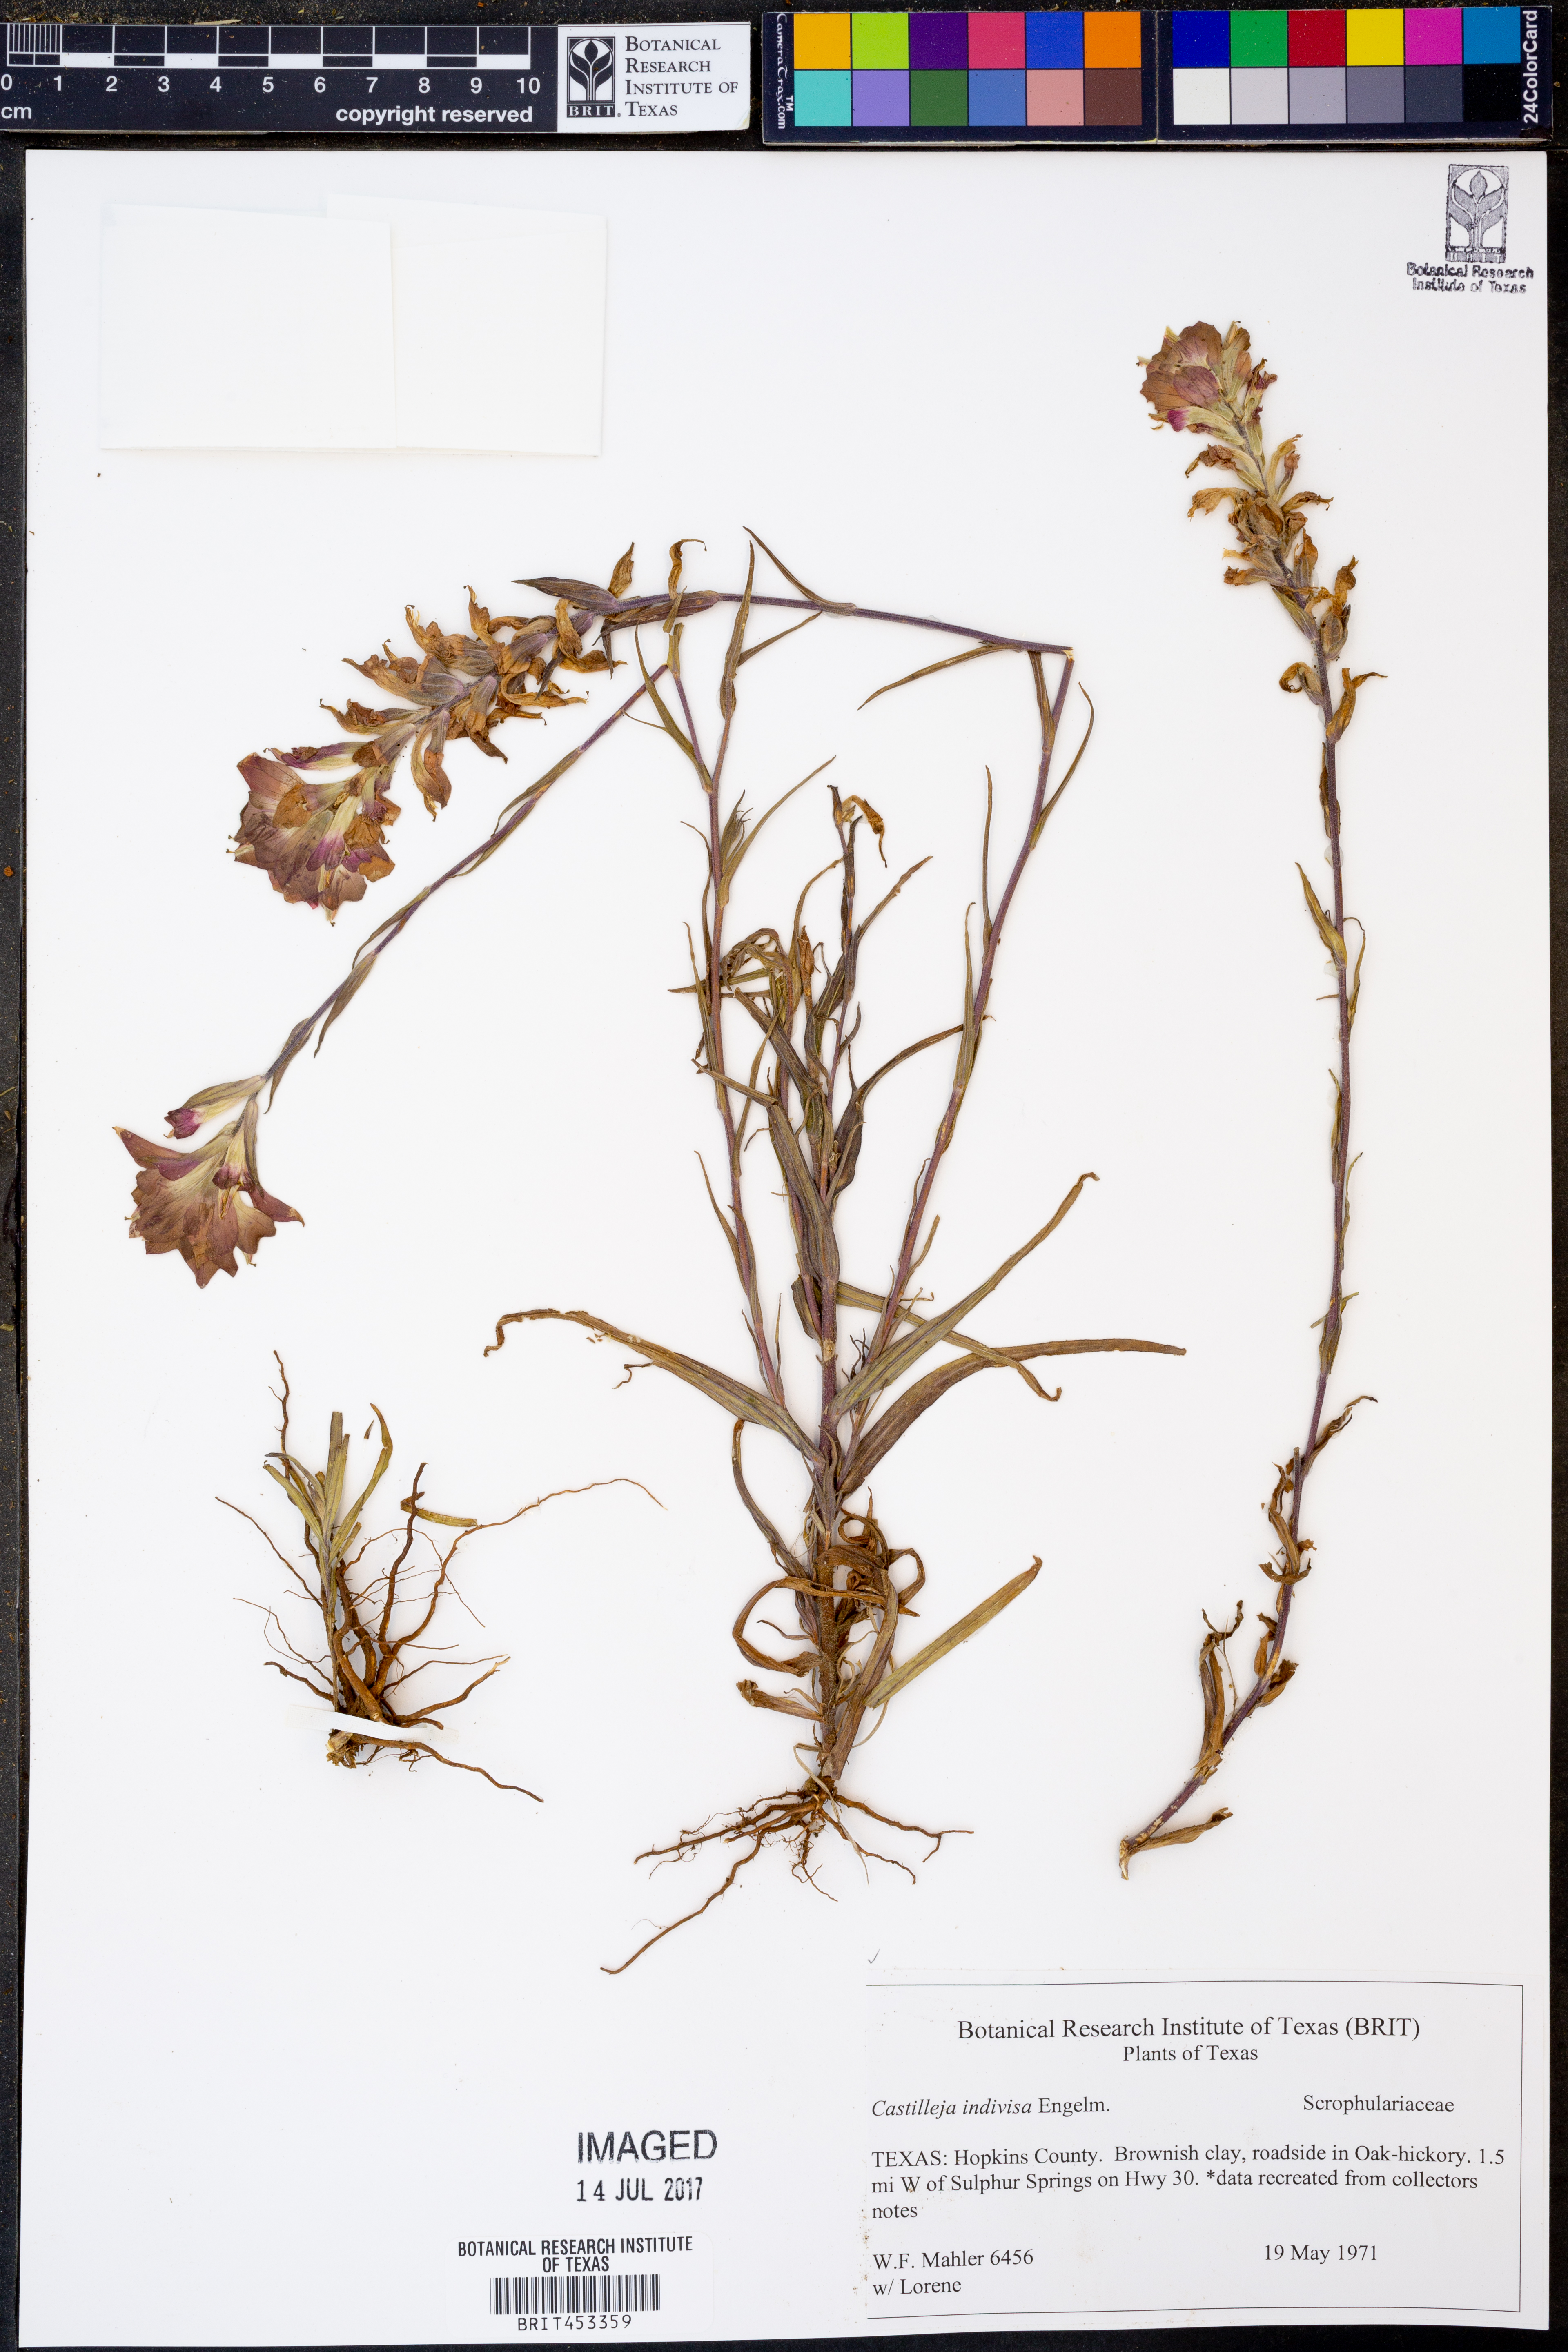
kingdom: Plantae
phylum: Tracheophyta
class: Magnoliopsida
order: Lamiales
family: Orobanchaceae
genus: Castilleja
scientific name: Castilleja indivisa
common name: Texas paintbrush
